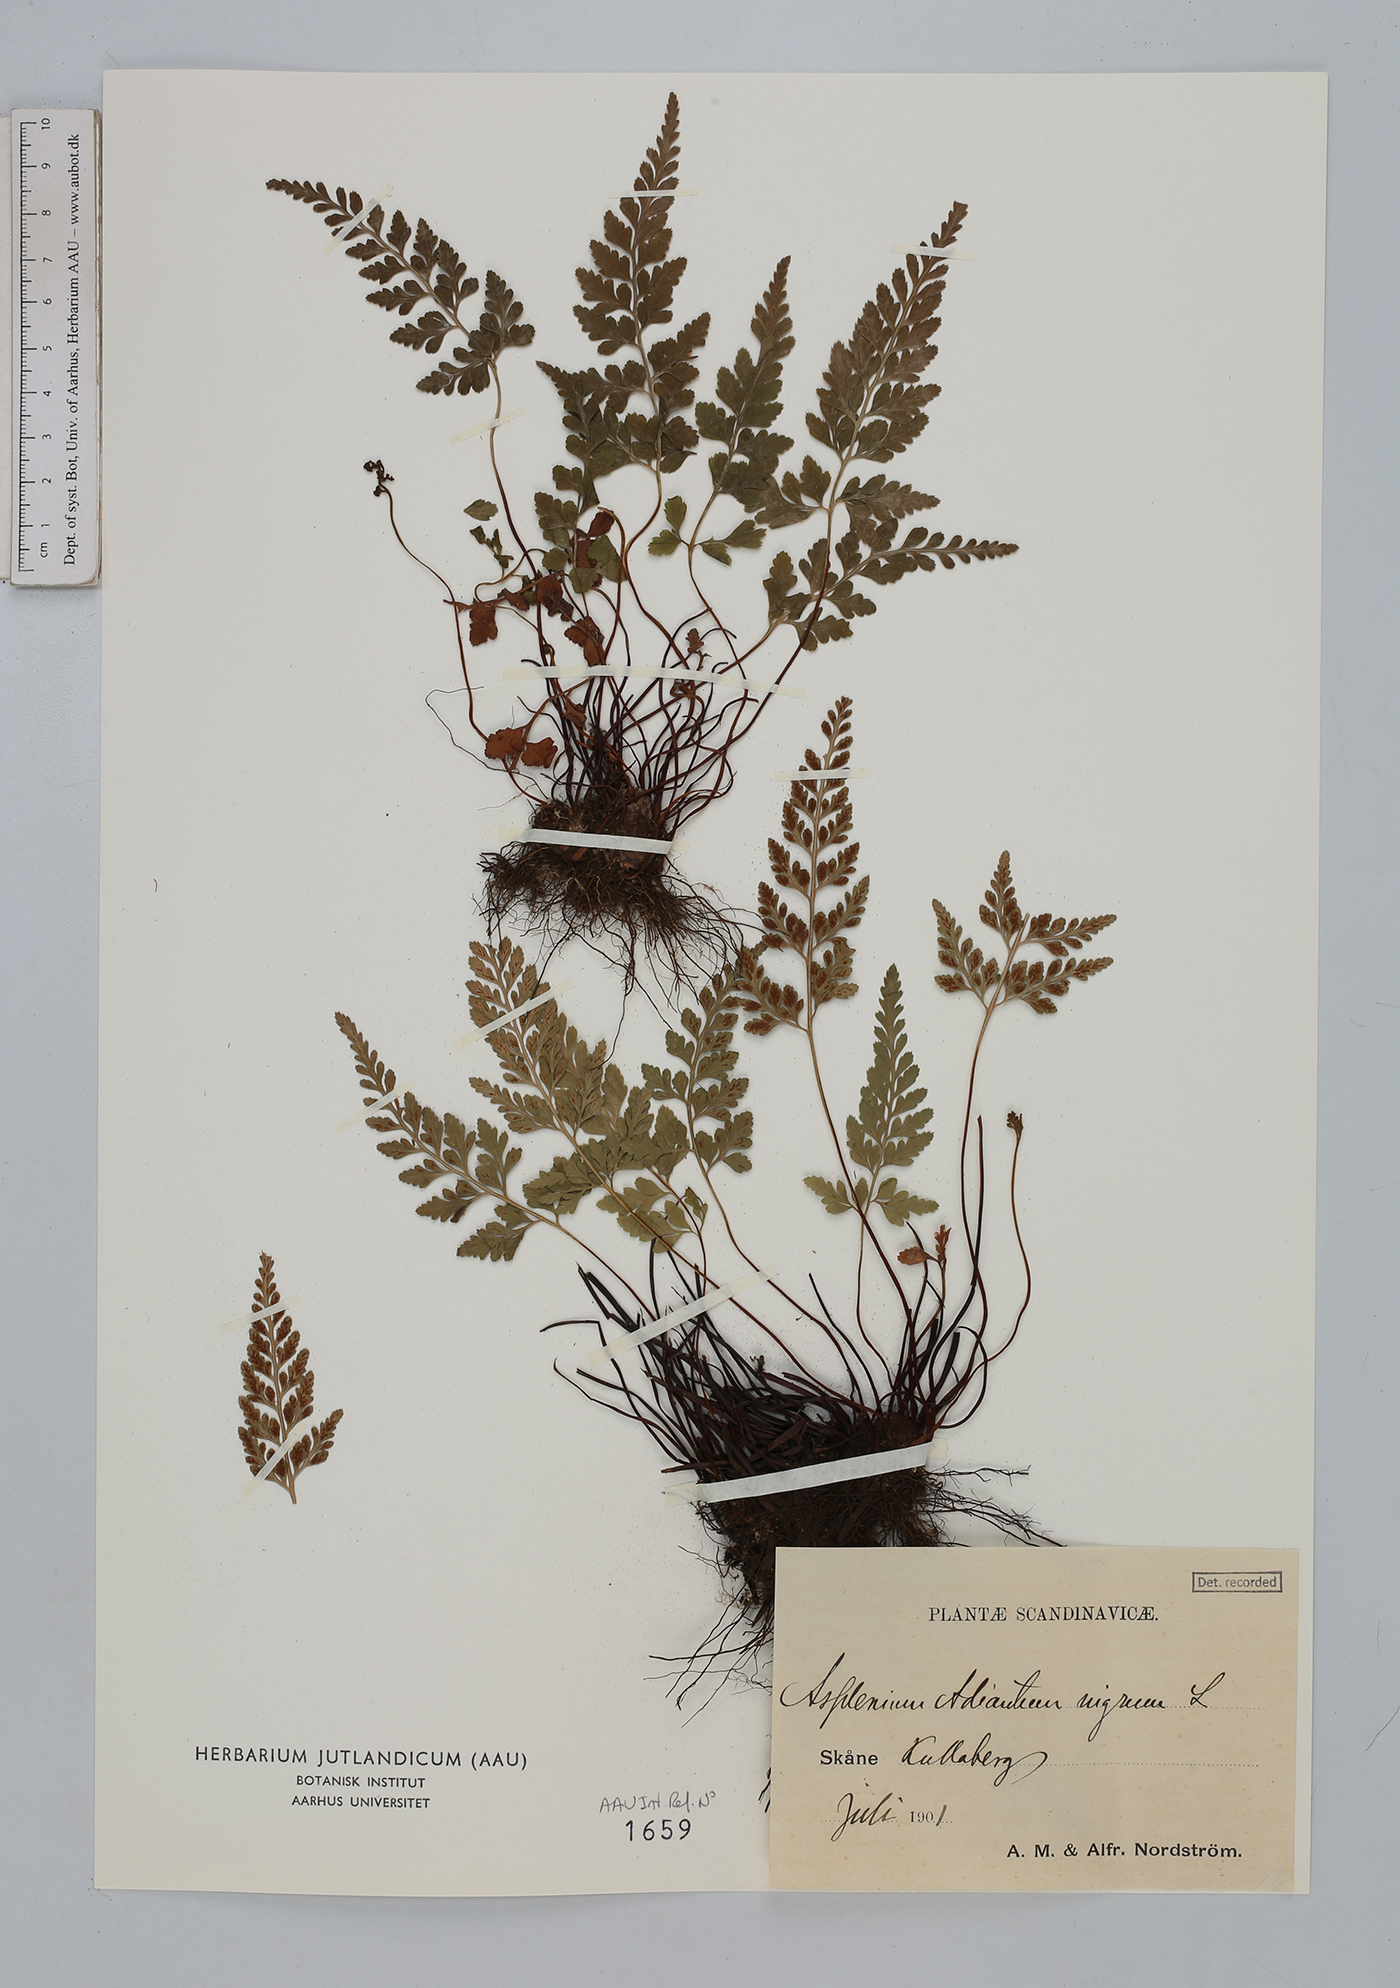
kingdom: Plantae
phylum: Tracheophyta
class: Polypodiopsida
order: Polypodiales
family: Aspleniaceae
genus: Asplenium
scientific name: Asplenium adiantum-nigrum
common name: Black spleenwort
